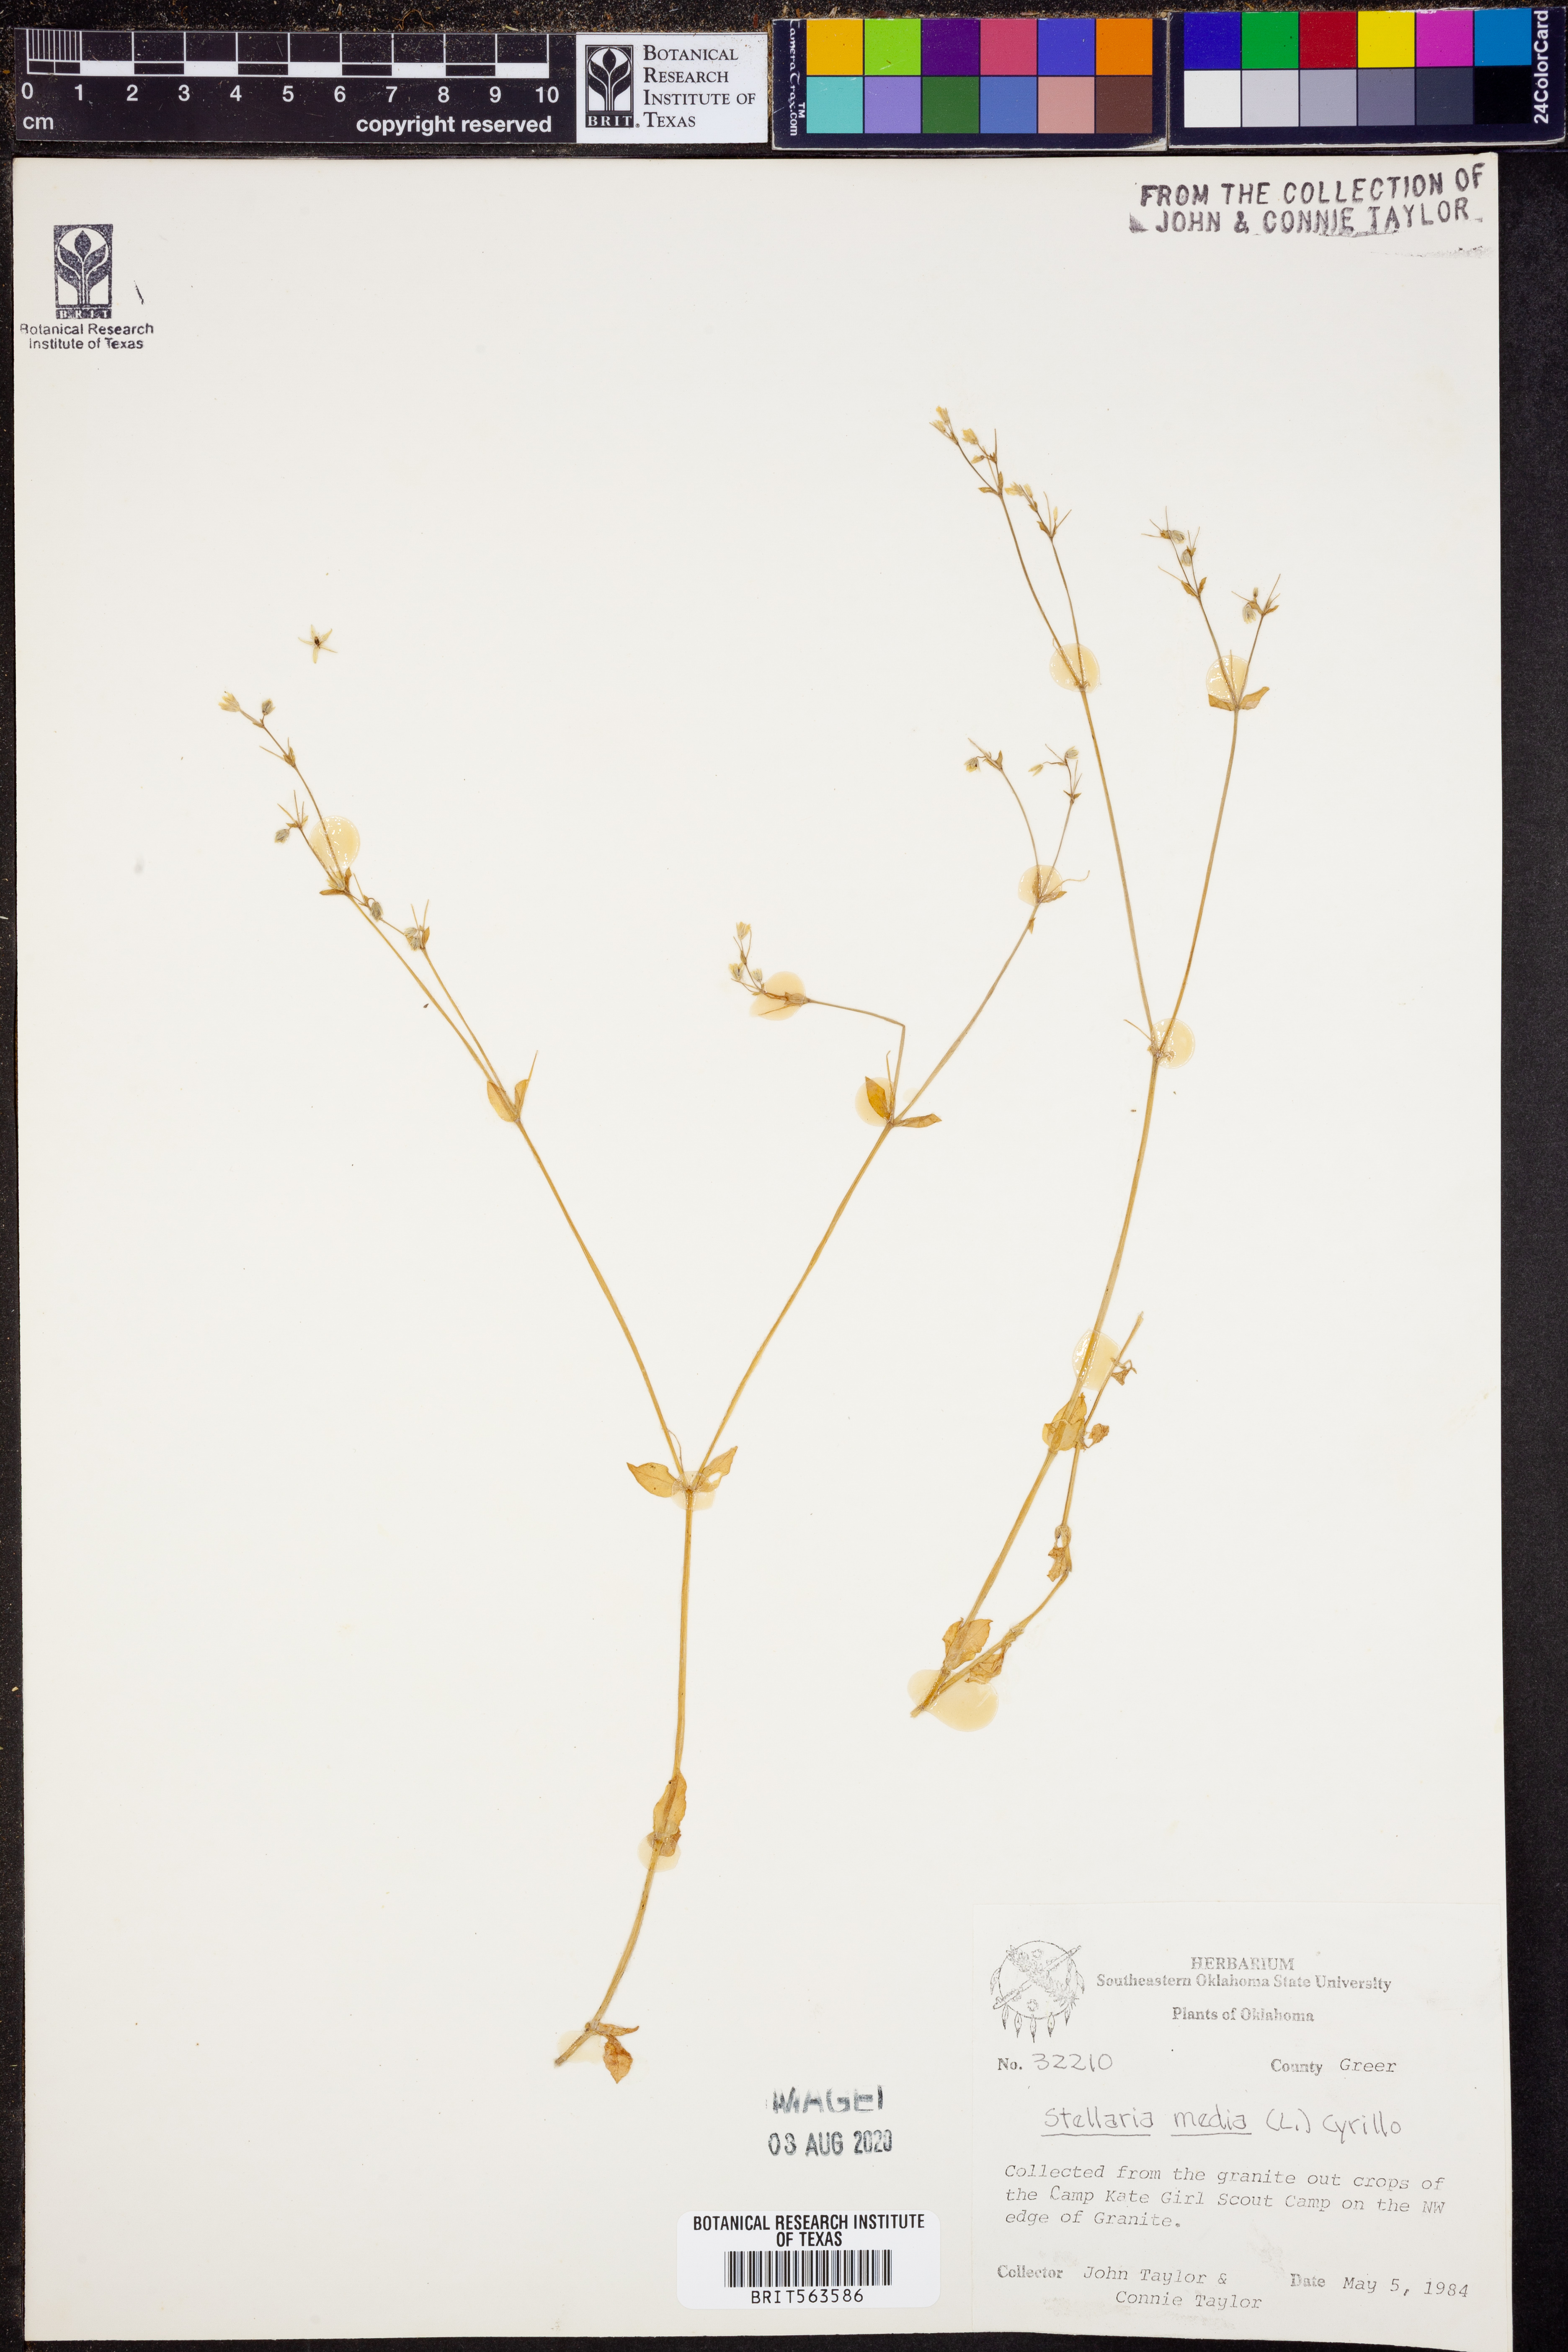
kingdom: Plantae
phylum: Tracheophyta
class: Magnoliopsida
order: Caryophyllales
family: Caryophyllaceae
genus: Stellaria
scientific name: Stellaria media
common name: Common chickweed
